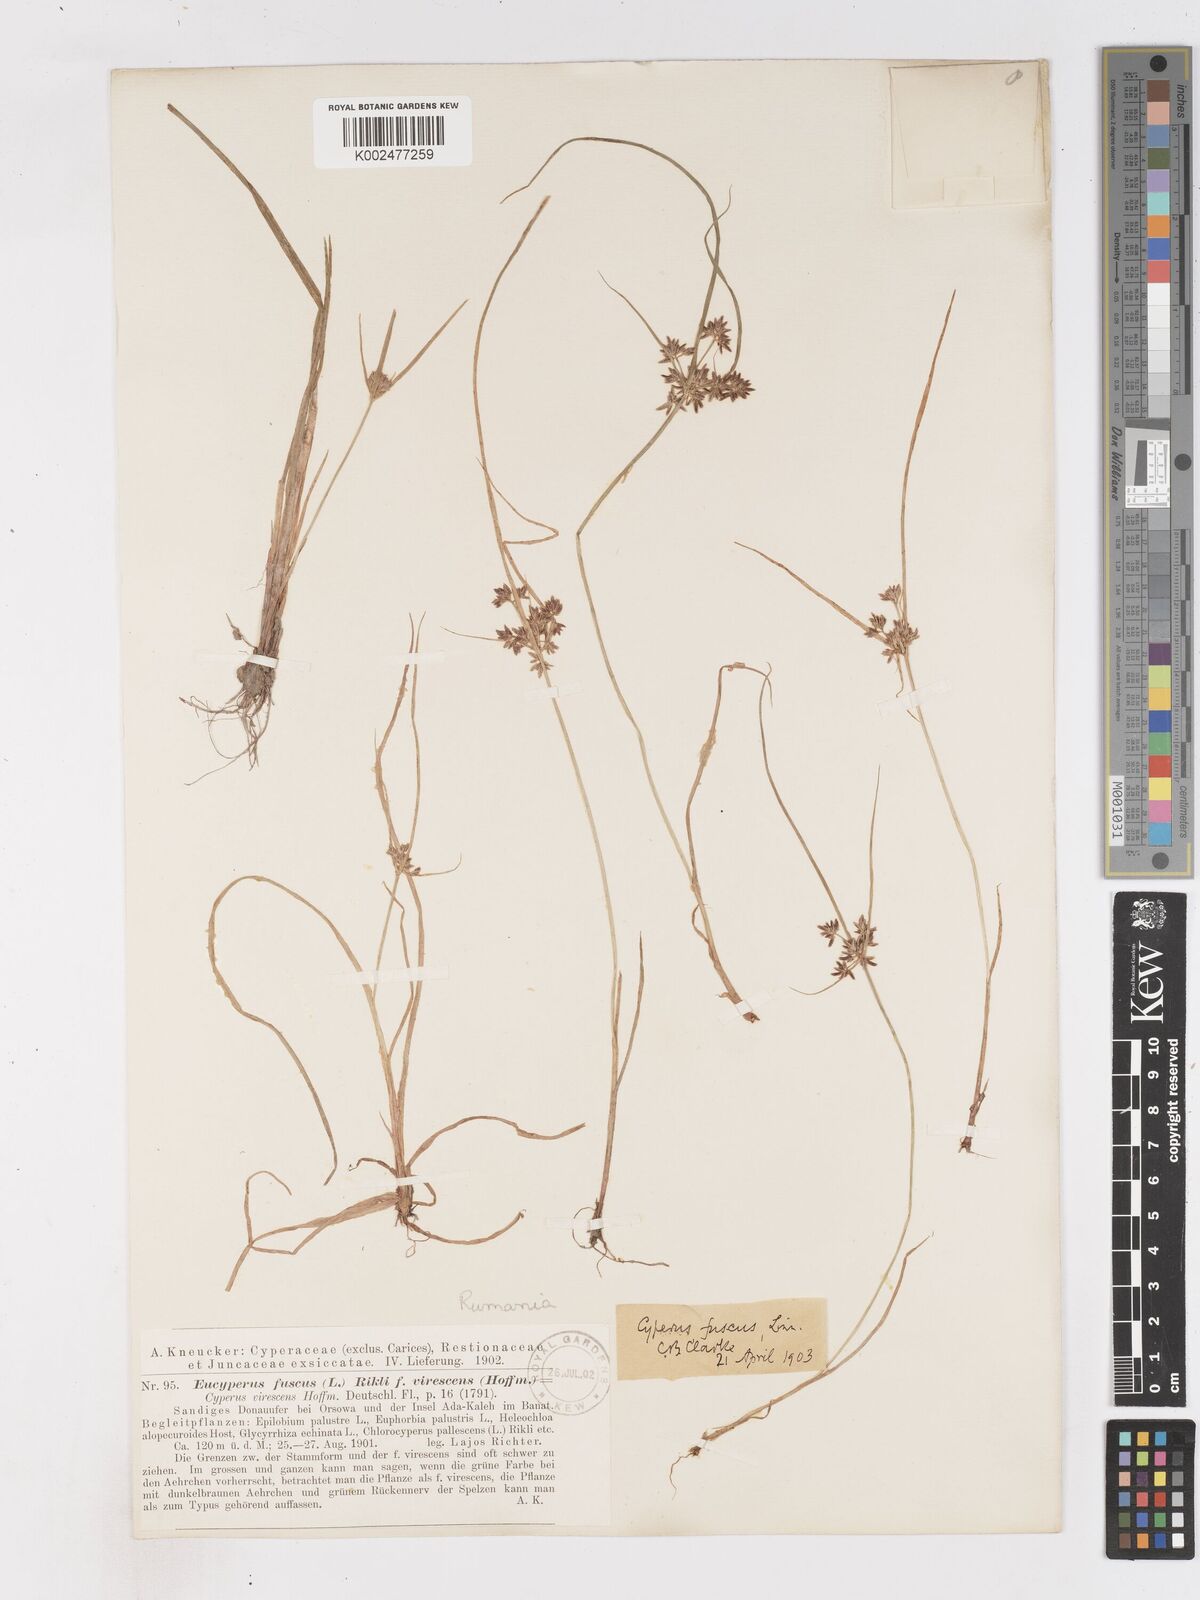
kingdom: Plantae
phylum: Tracheophyta
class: Liliopsida
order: Poales
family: Cyperaceae
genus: Cyperus
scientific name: Cyperus fuscus
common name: Brown galingale
